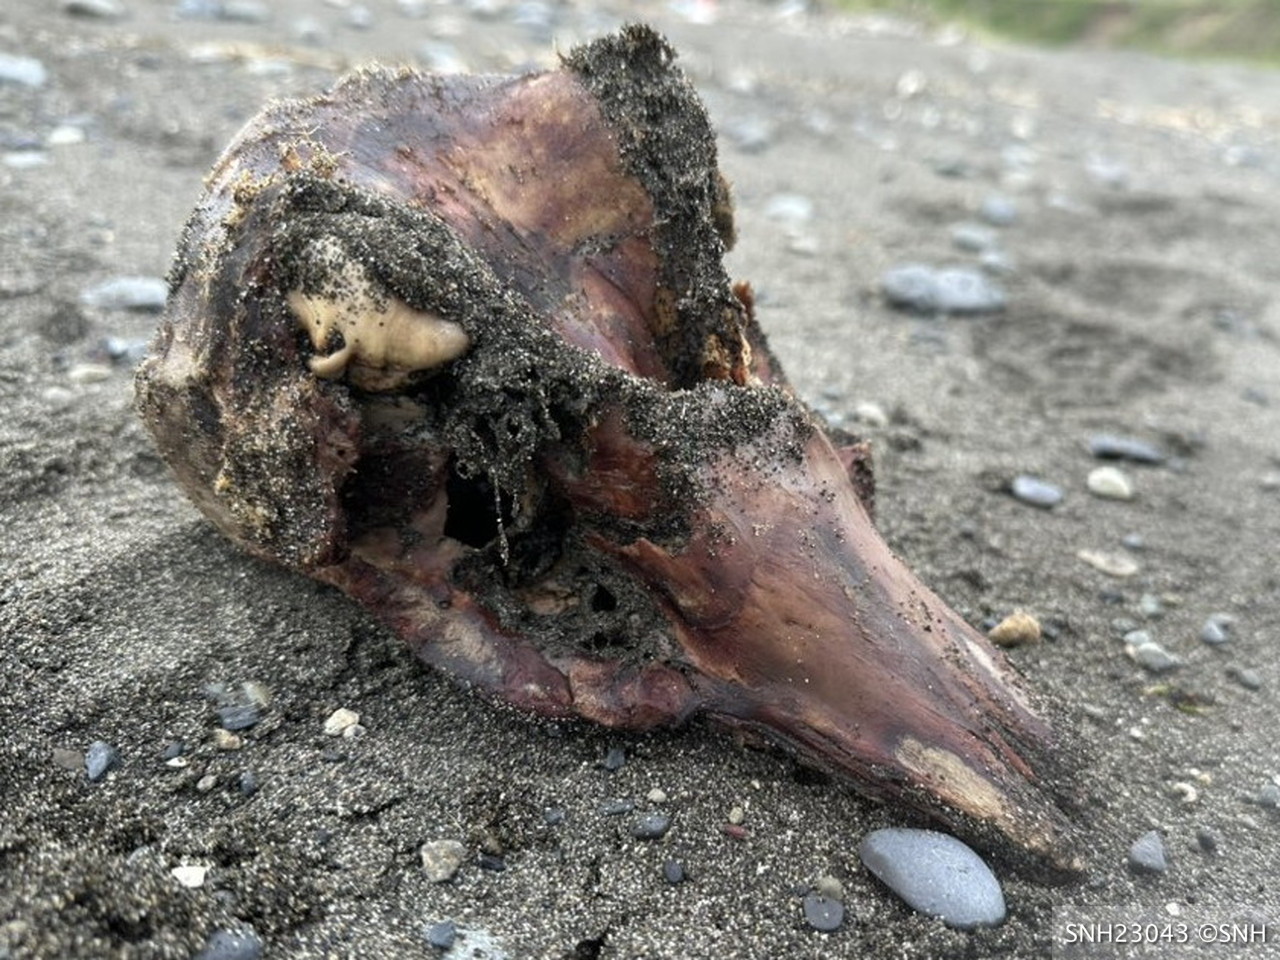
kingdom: Animalia
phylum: Chordata
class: Mammalia
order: Cetacea
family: Phocoenidae
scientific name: Phocoenidae
